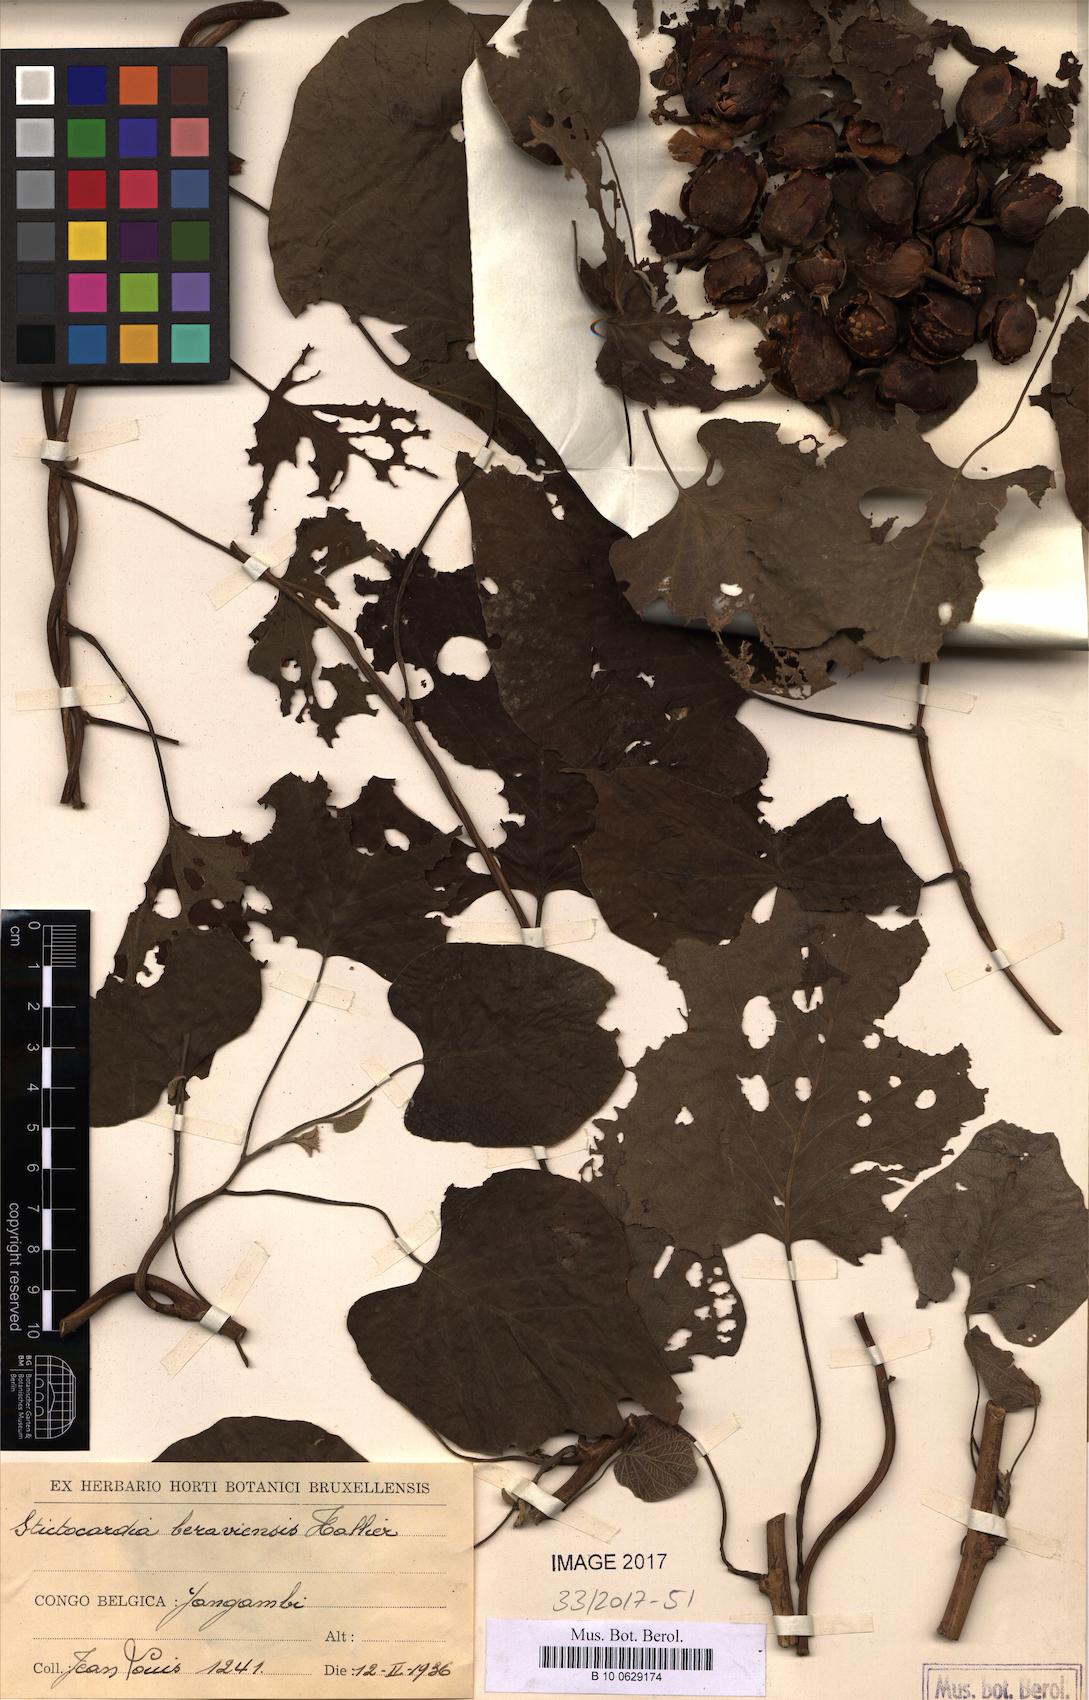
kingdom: Plantae
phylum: Tracheophyta
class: Magnoliopsida
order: Solanales
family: Convolvulaceae
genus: Stictocardia
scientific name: Stictocardia beraviensis
